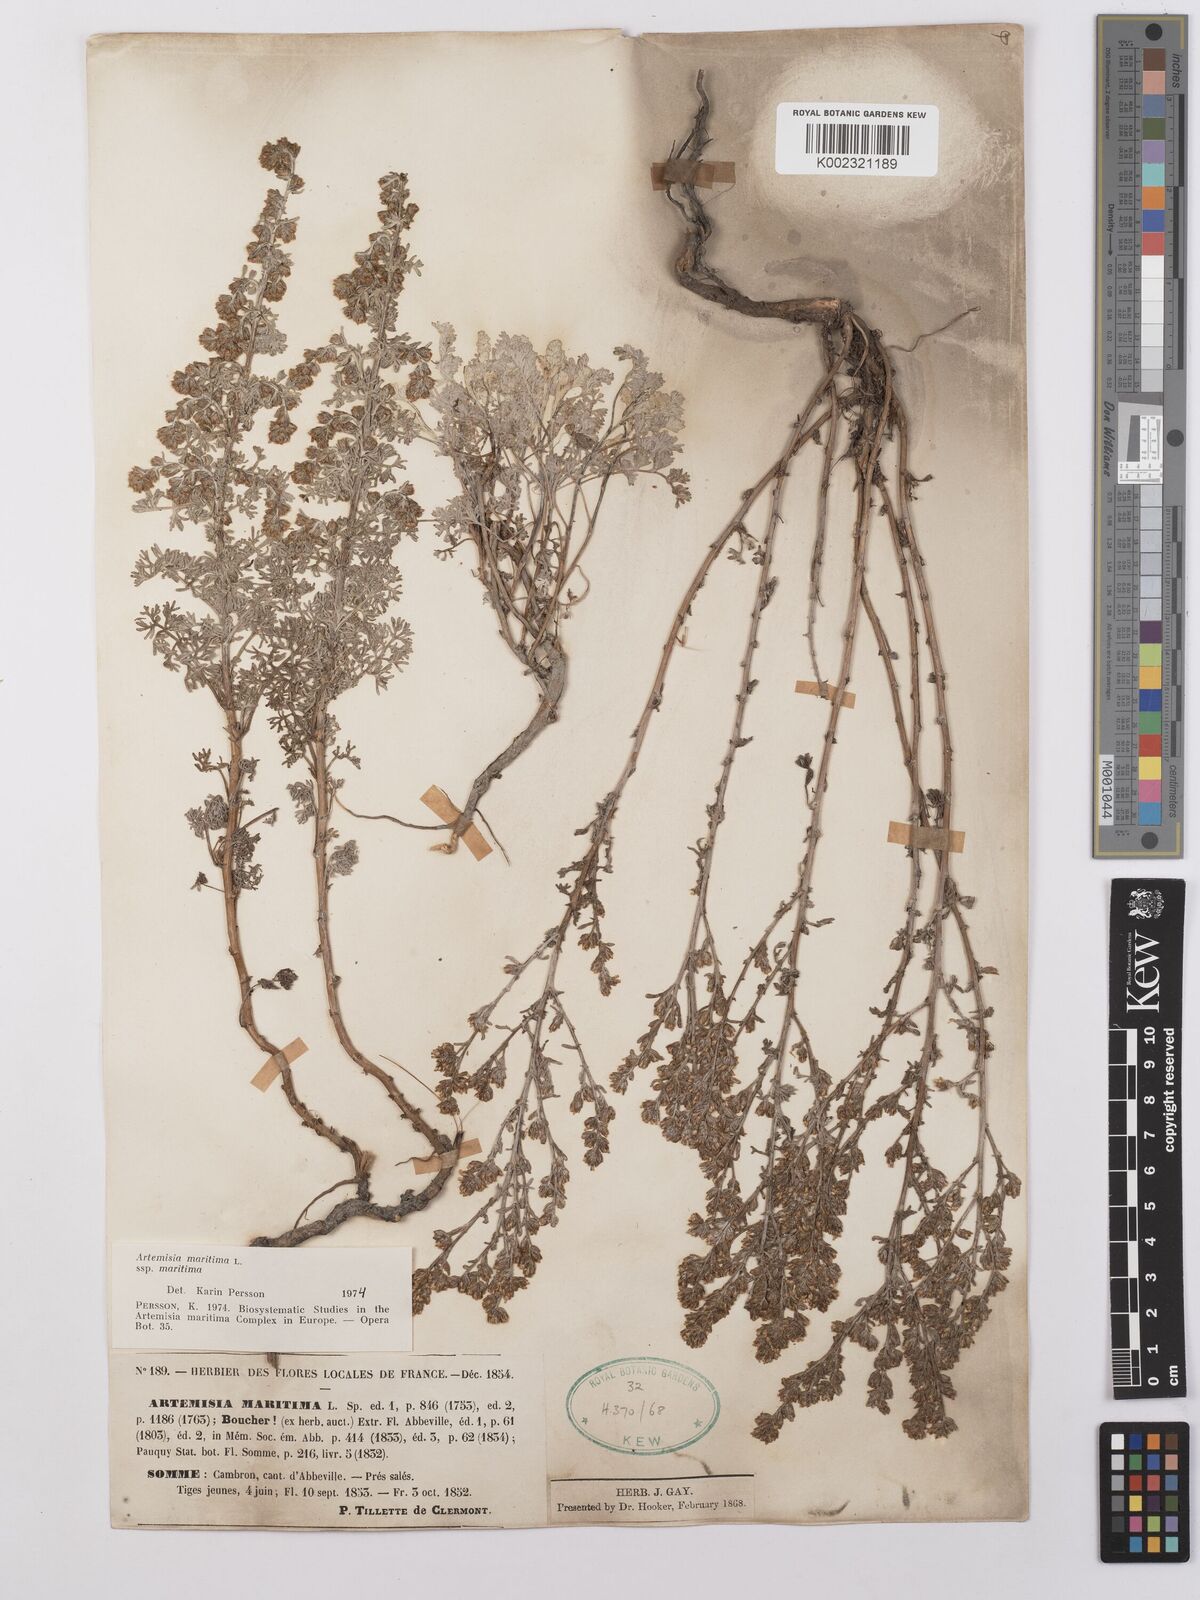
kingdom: Plantae
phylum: Tracheophyta
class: Magnoliopsida
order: Asterales
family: Asteraceae
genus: Artemisia
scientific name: Artemisia maritima
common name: Wormseed
